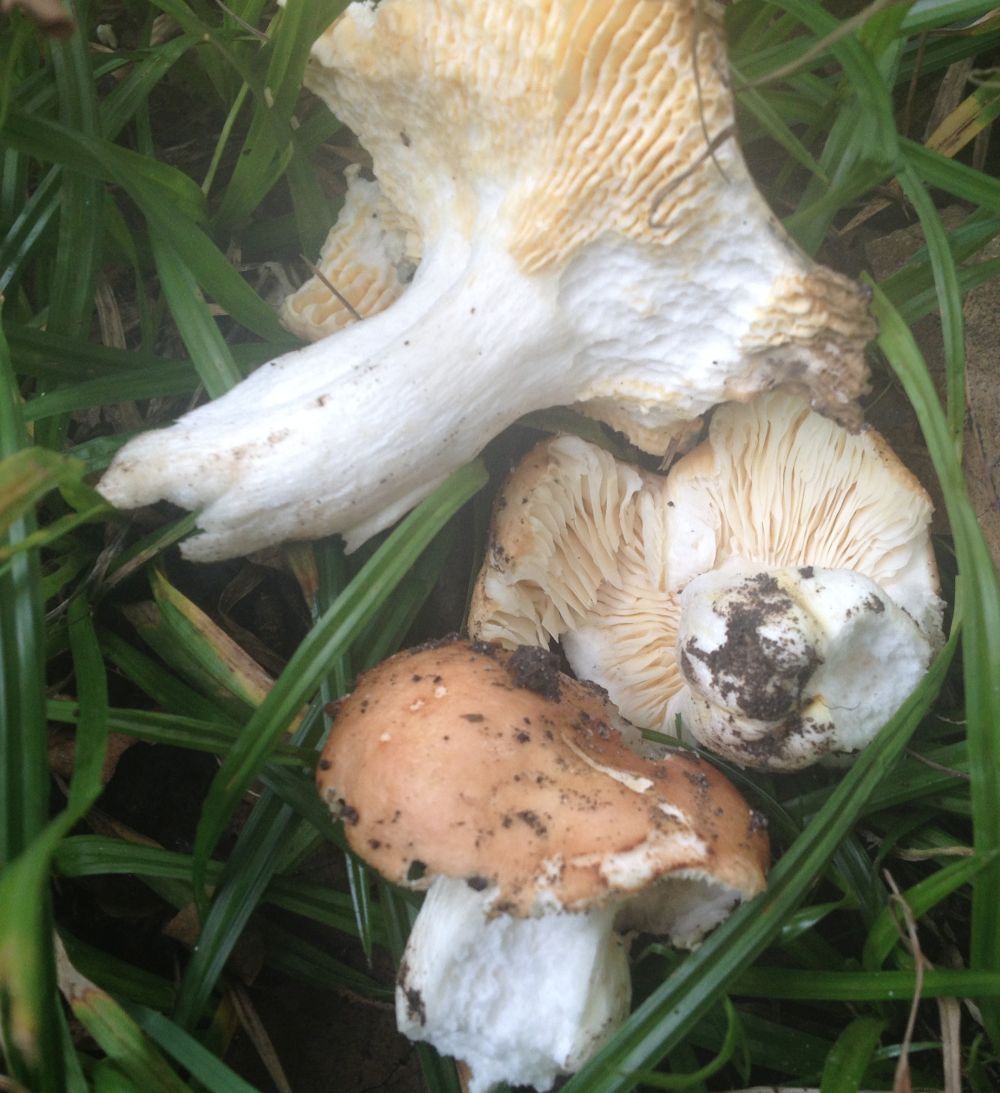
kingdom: Fungi
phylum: Basidiomycota
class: Agaricomycetes
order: Russulales
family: Russulaceae
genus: Russula
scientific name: Russula
